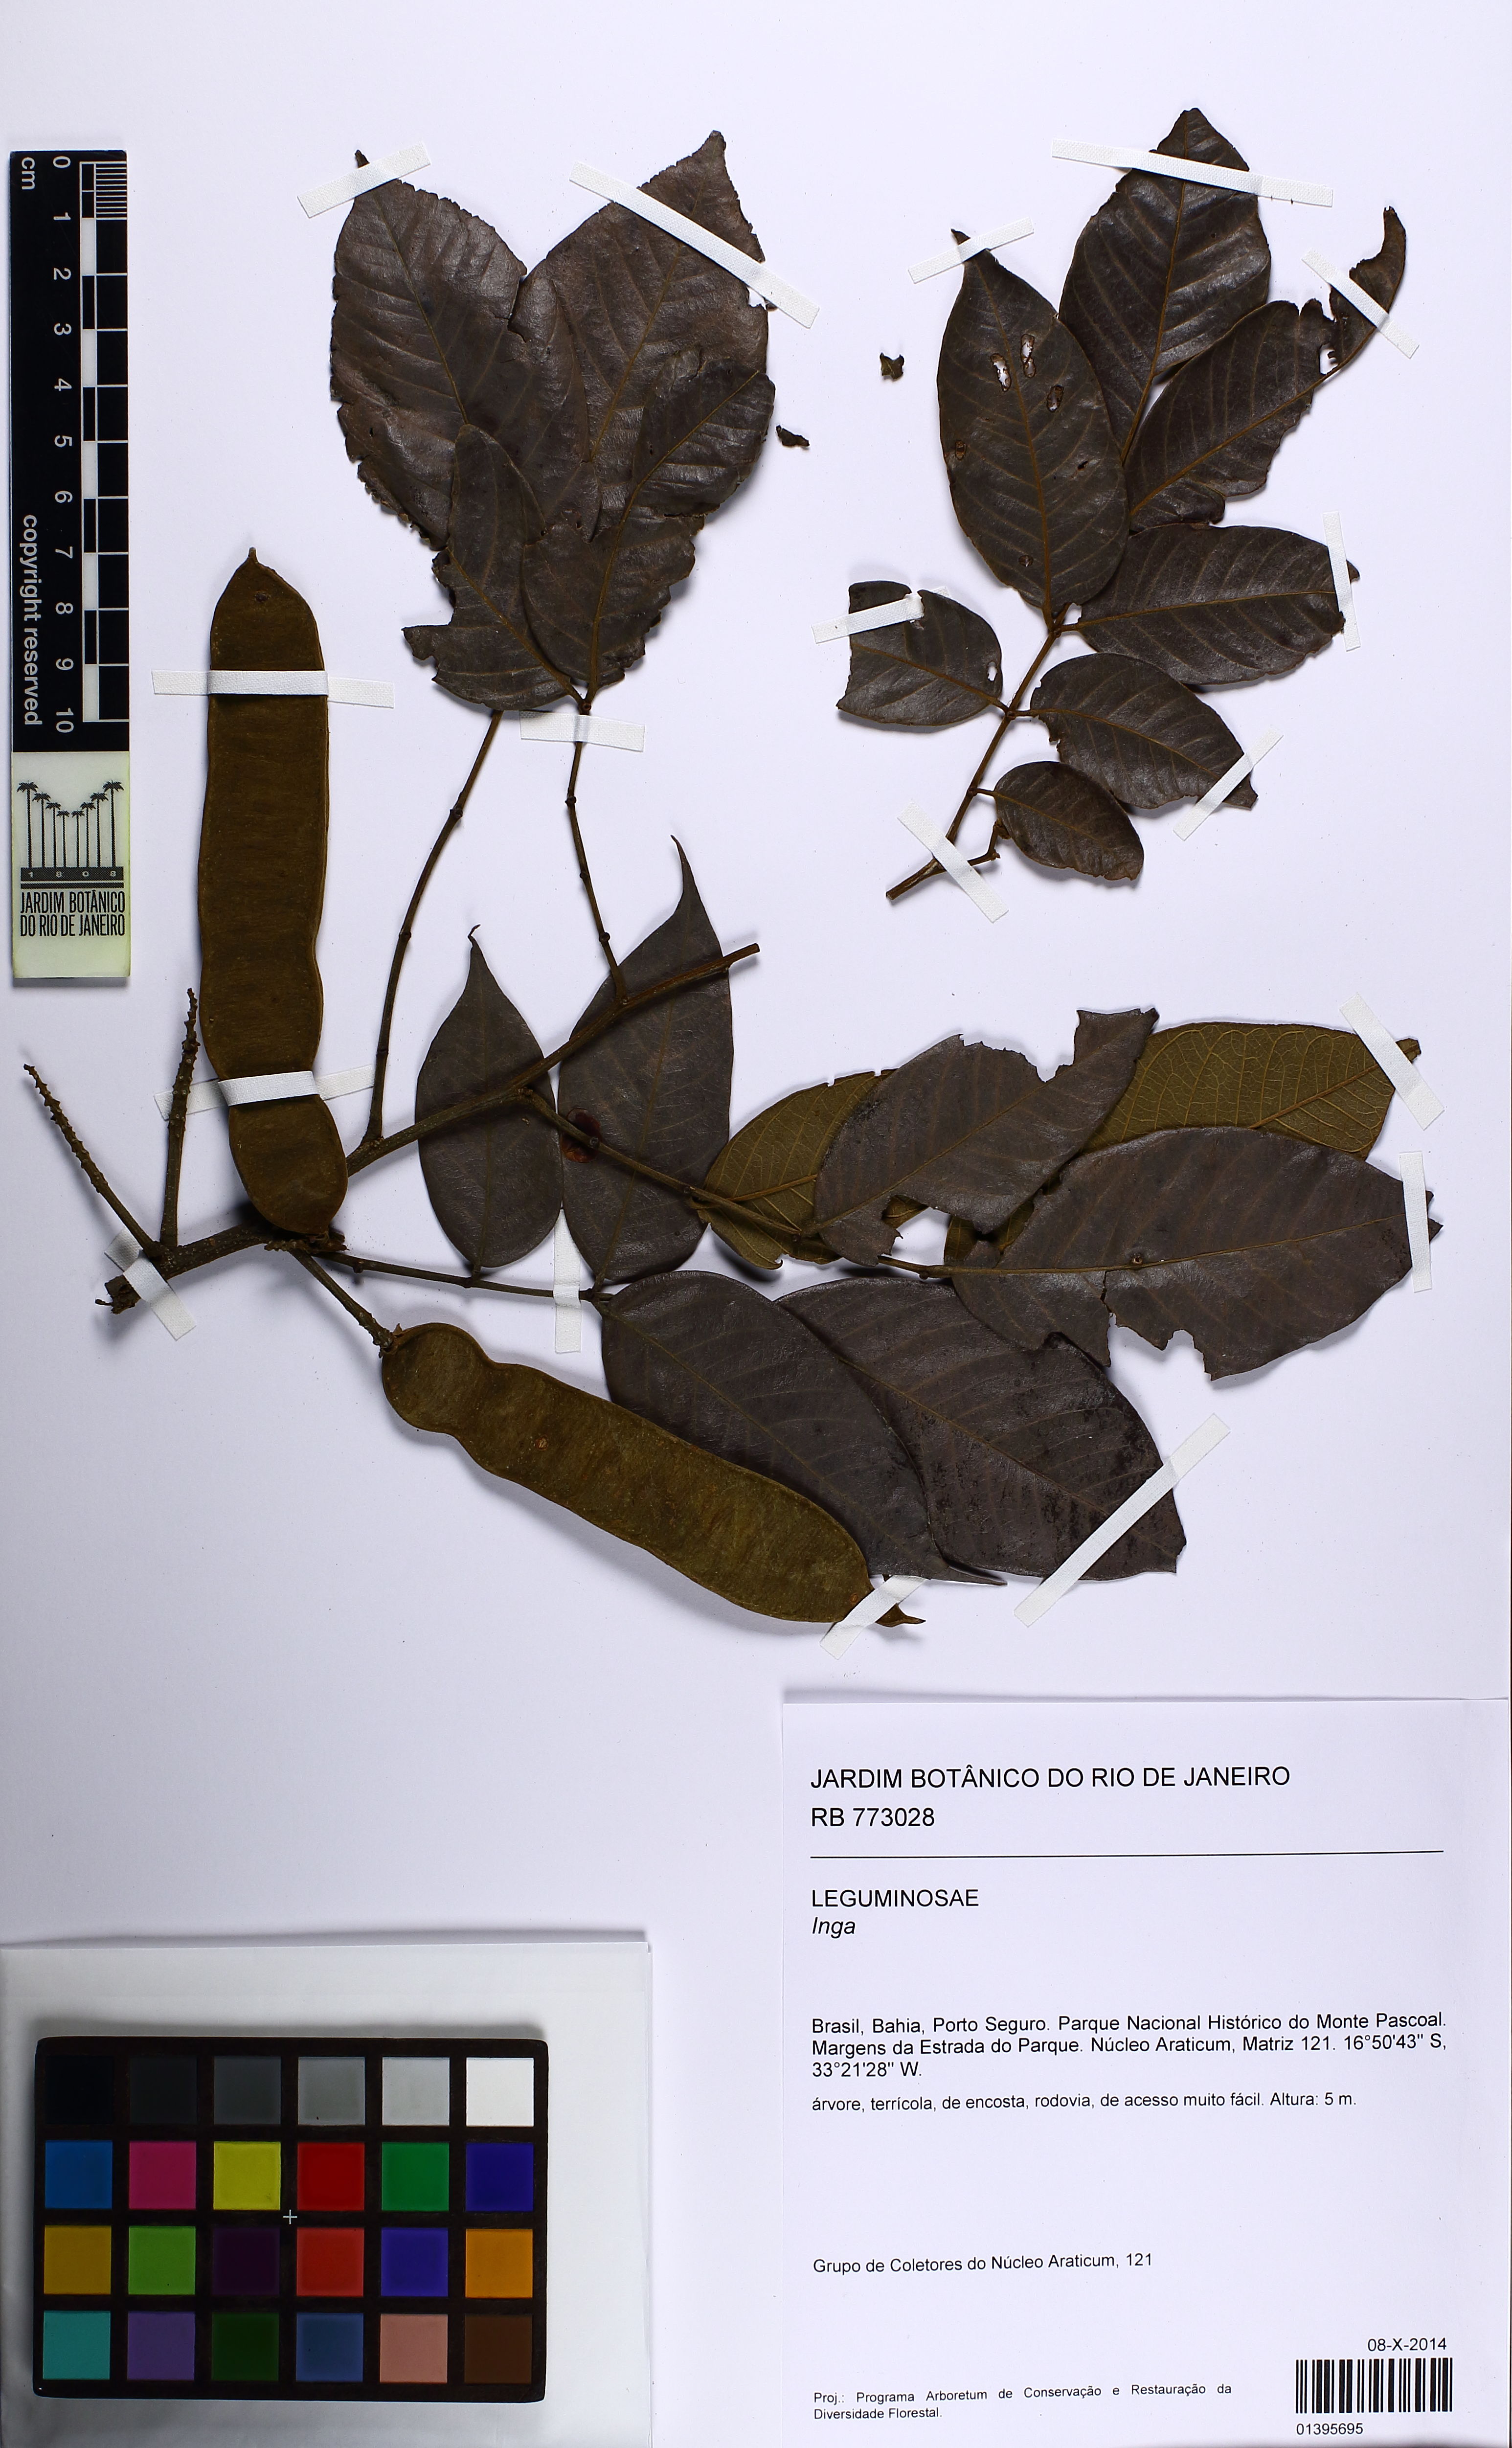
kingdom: Plantae
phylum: Tracheophyta
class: Magnoliopsida
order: Fabales
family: Fabaceae
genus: Inga
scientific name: Inga
